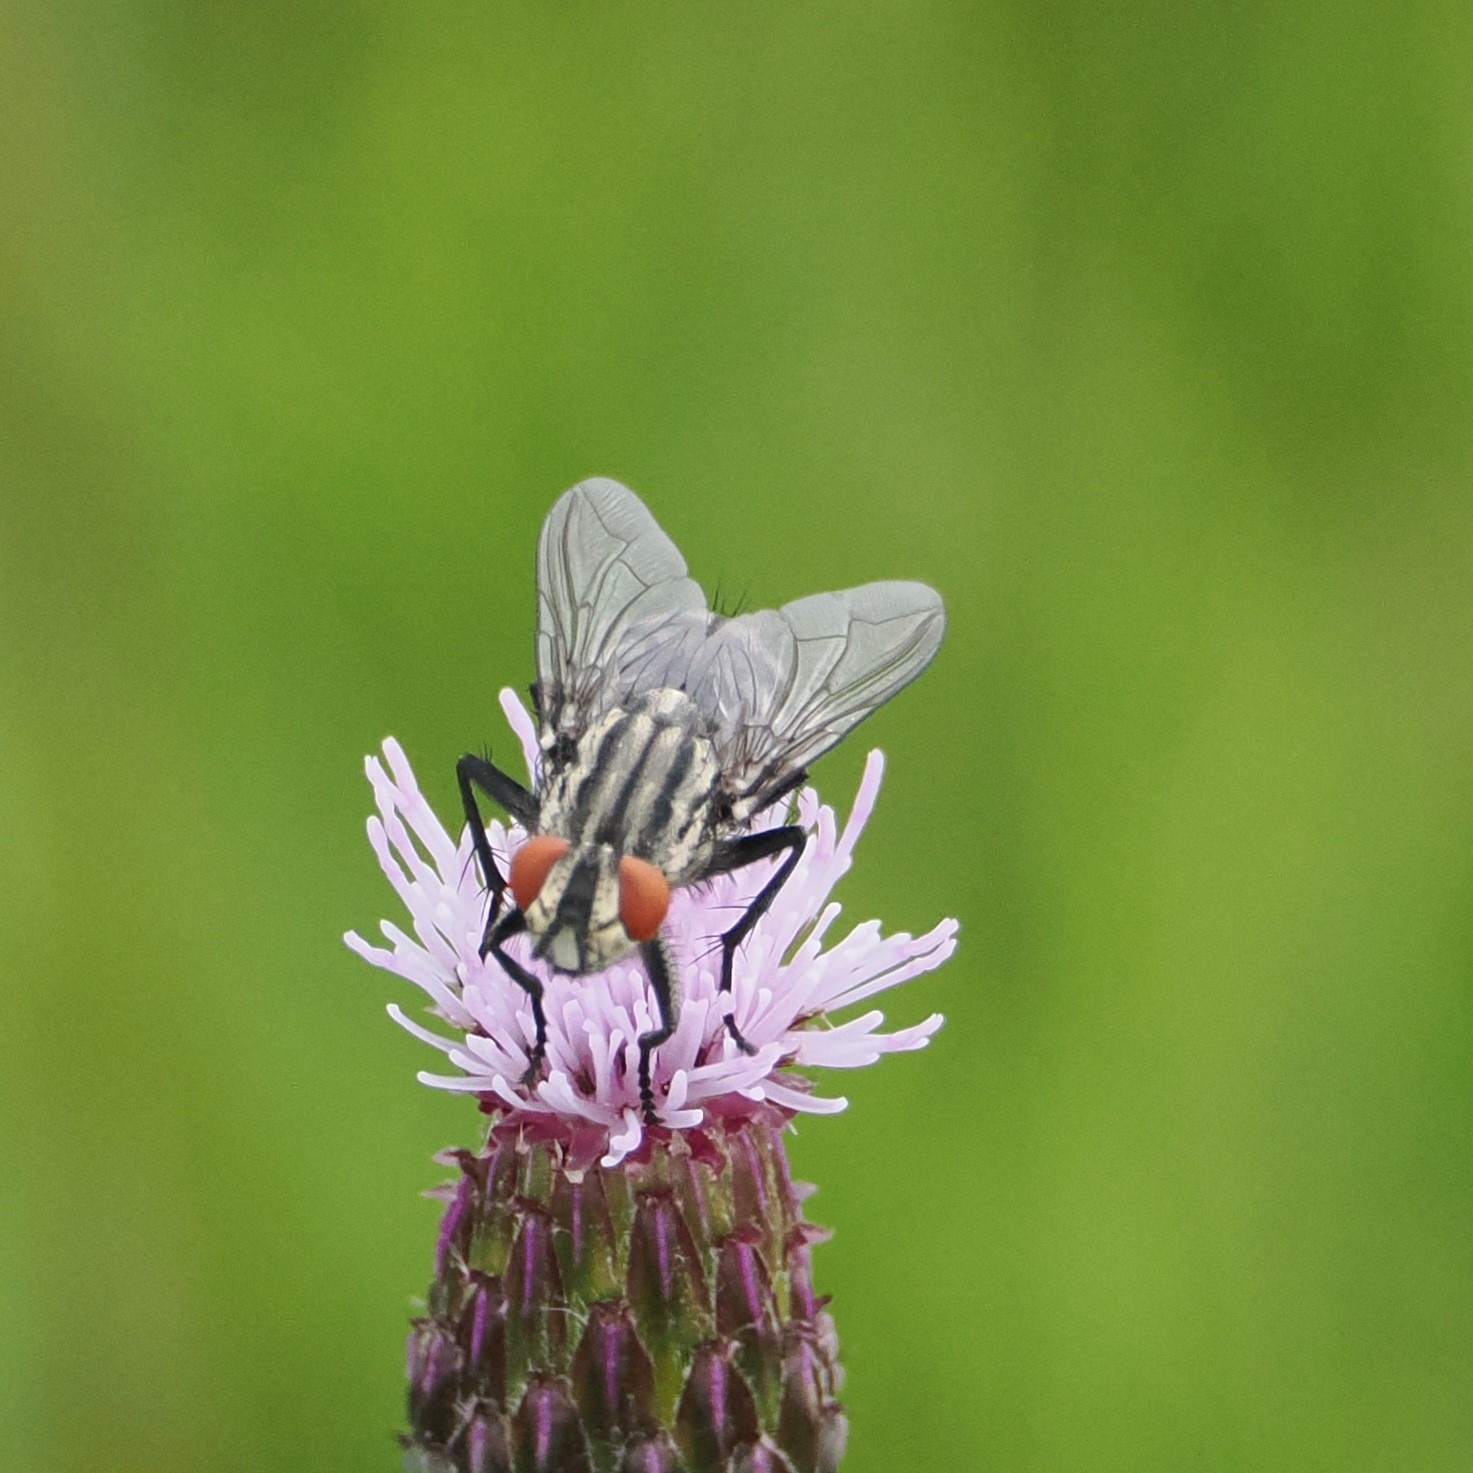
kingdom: Animalia
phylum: Arthropoda
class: Insecta
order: Diptera
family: Sarcophagidae
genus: Sarcophaga
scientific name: Sarcophaga
